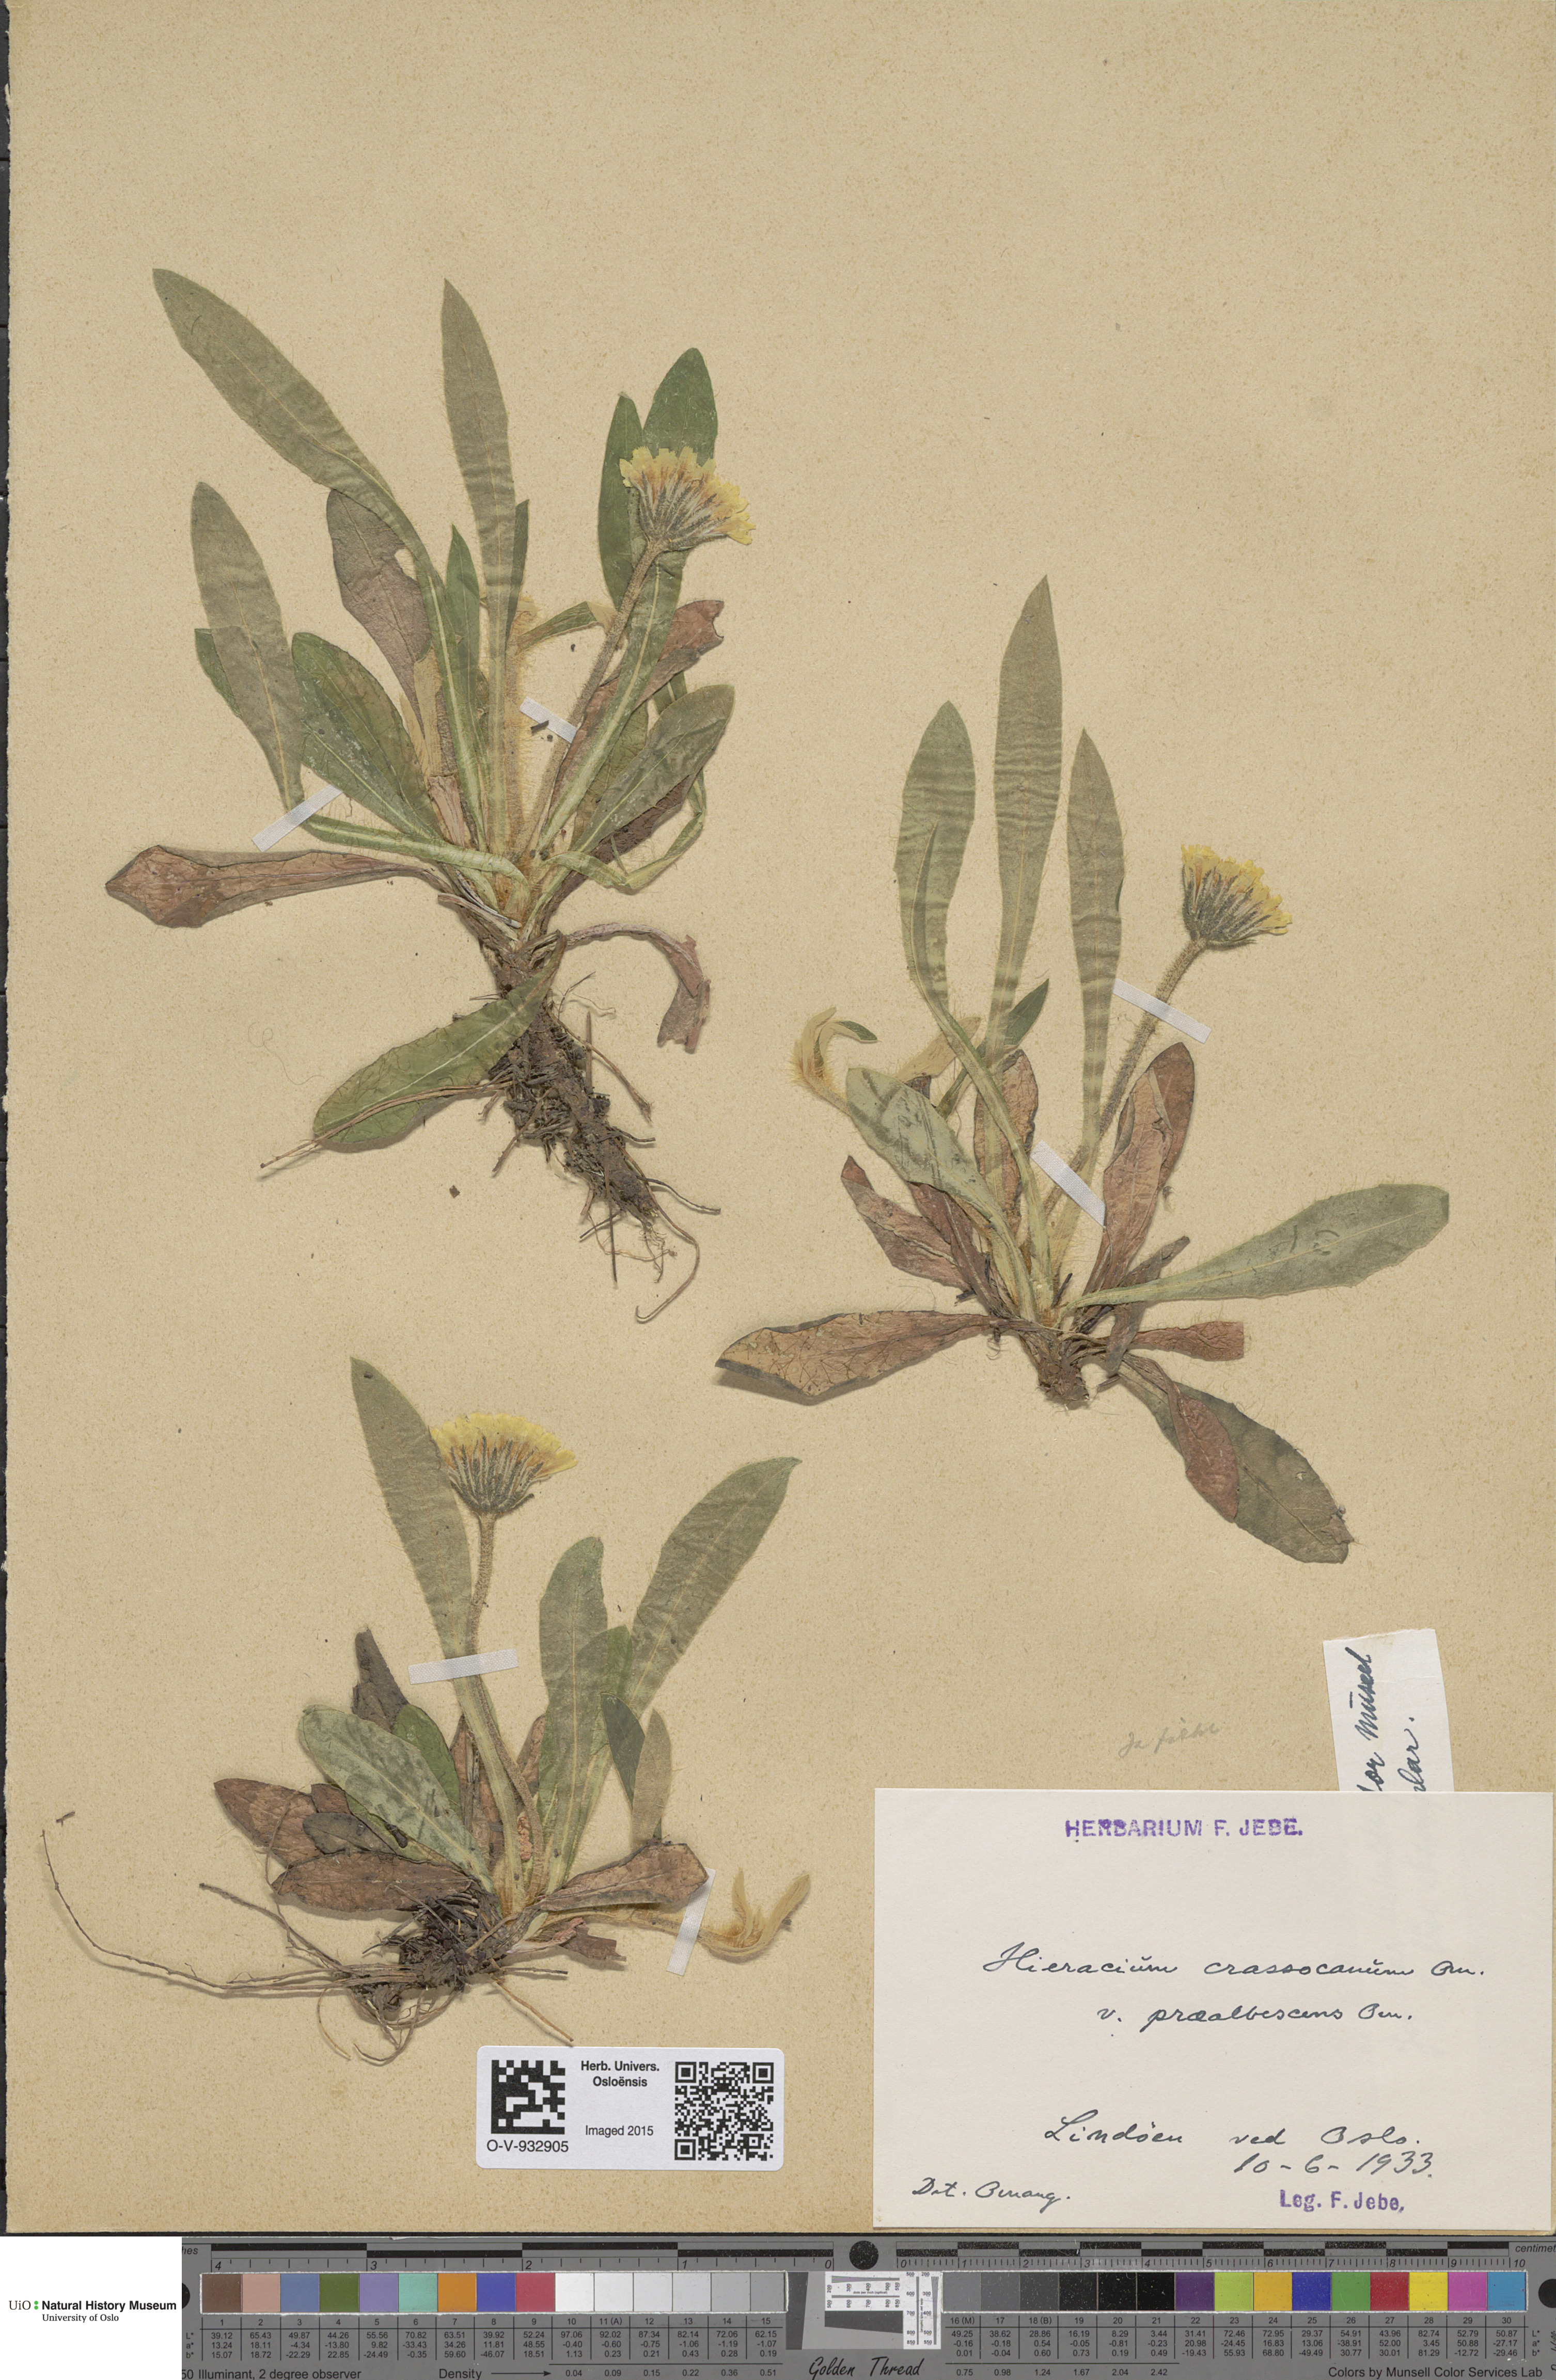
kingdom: Plantae
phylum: Tracheophyta
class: Magnoliopsida
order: Asterales
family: Asteraceae
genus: Pilosella
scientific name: Pilosella officinarum
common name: Mouse-ear hawkweed
